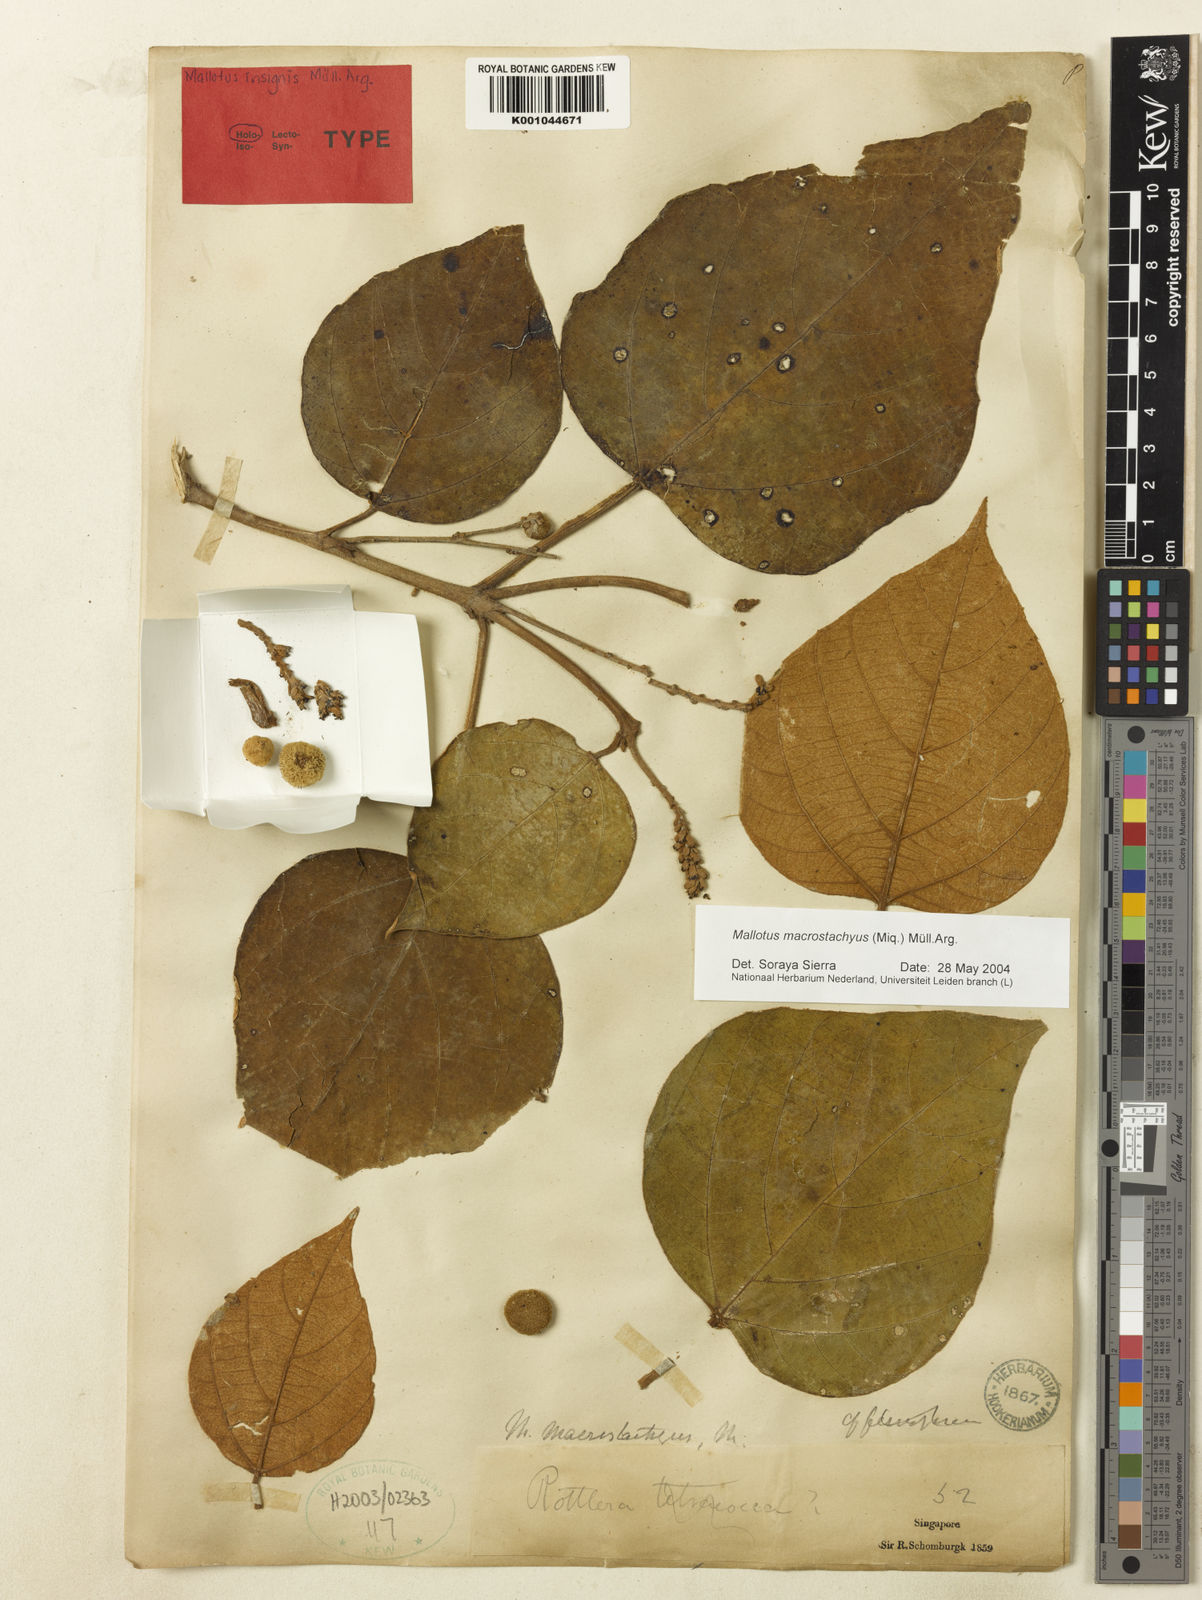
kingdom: Plantae
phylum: Tracheophyta
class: Magnoliopsida
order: Malpighiales
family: Euphorbiaceae
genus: Mallotus
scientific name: Mallotus
